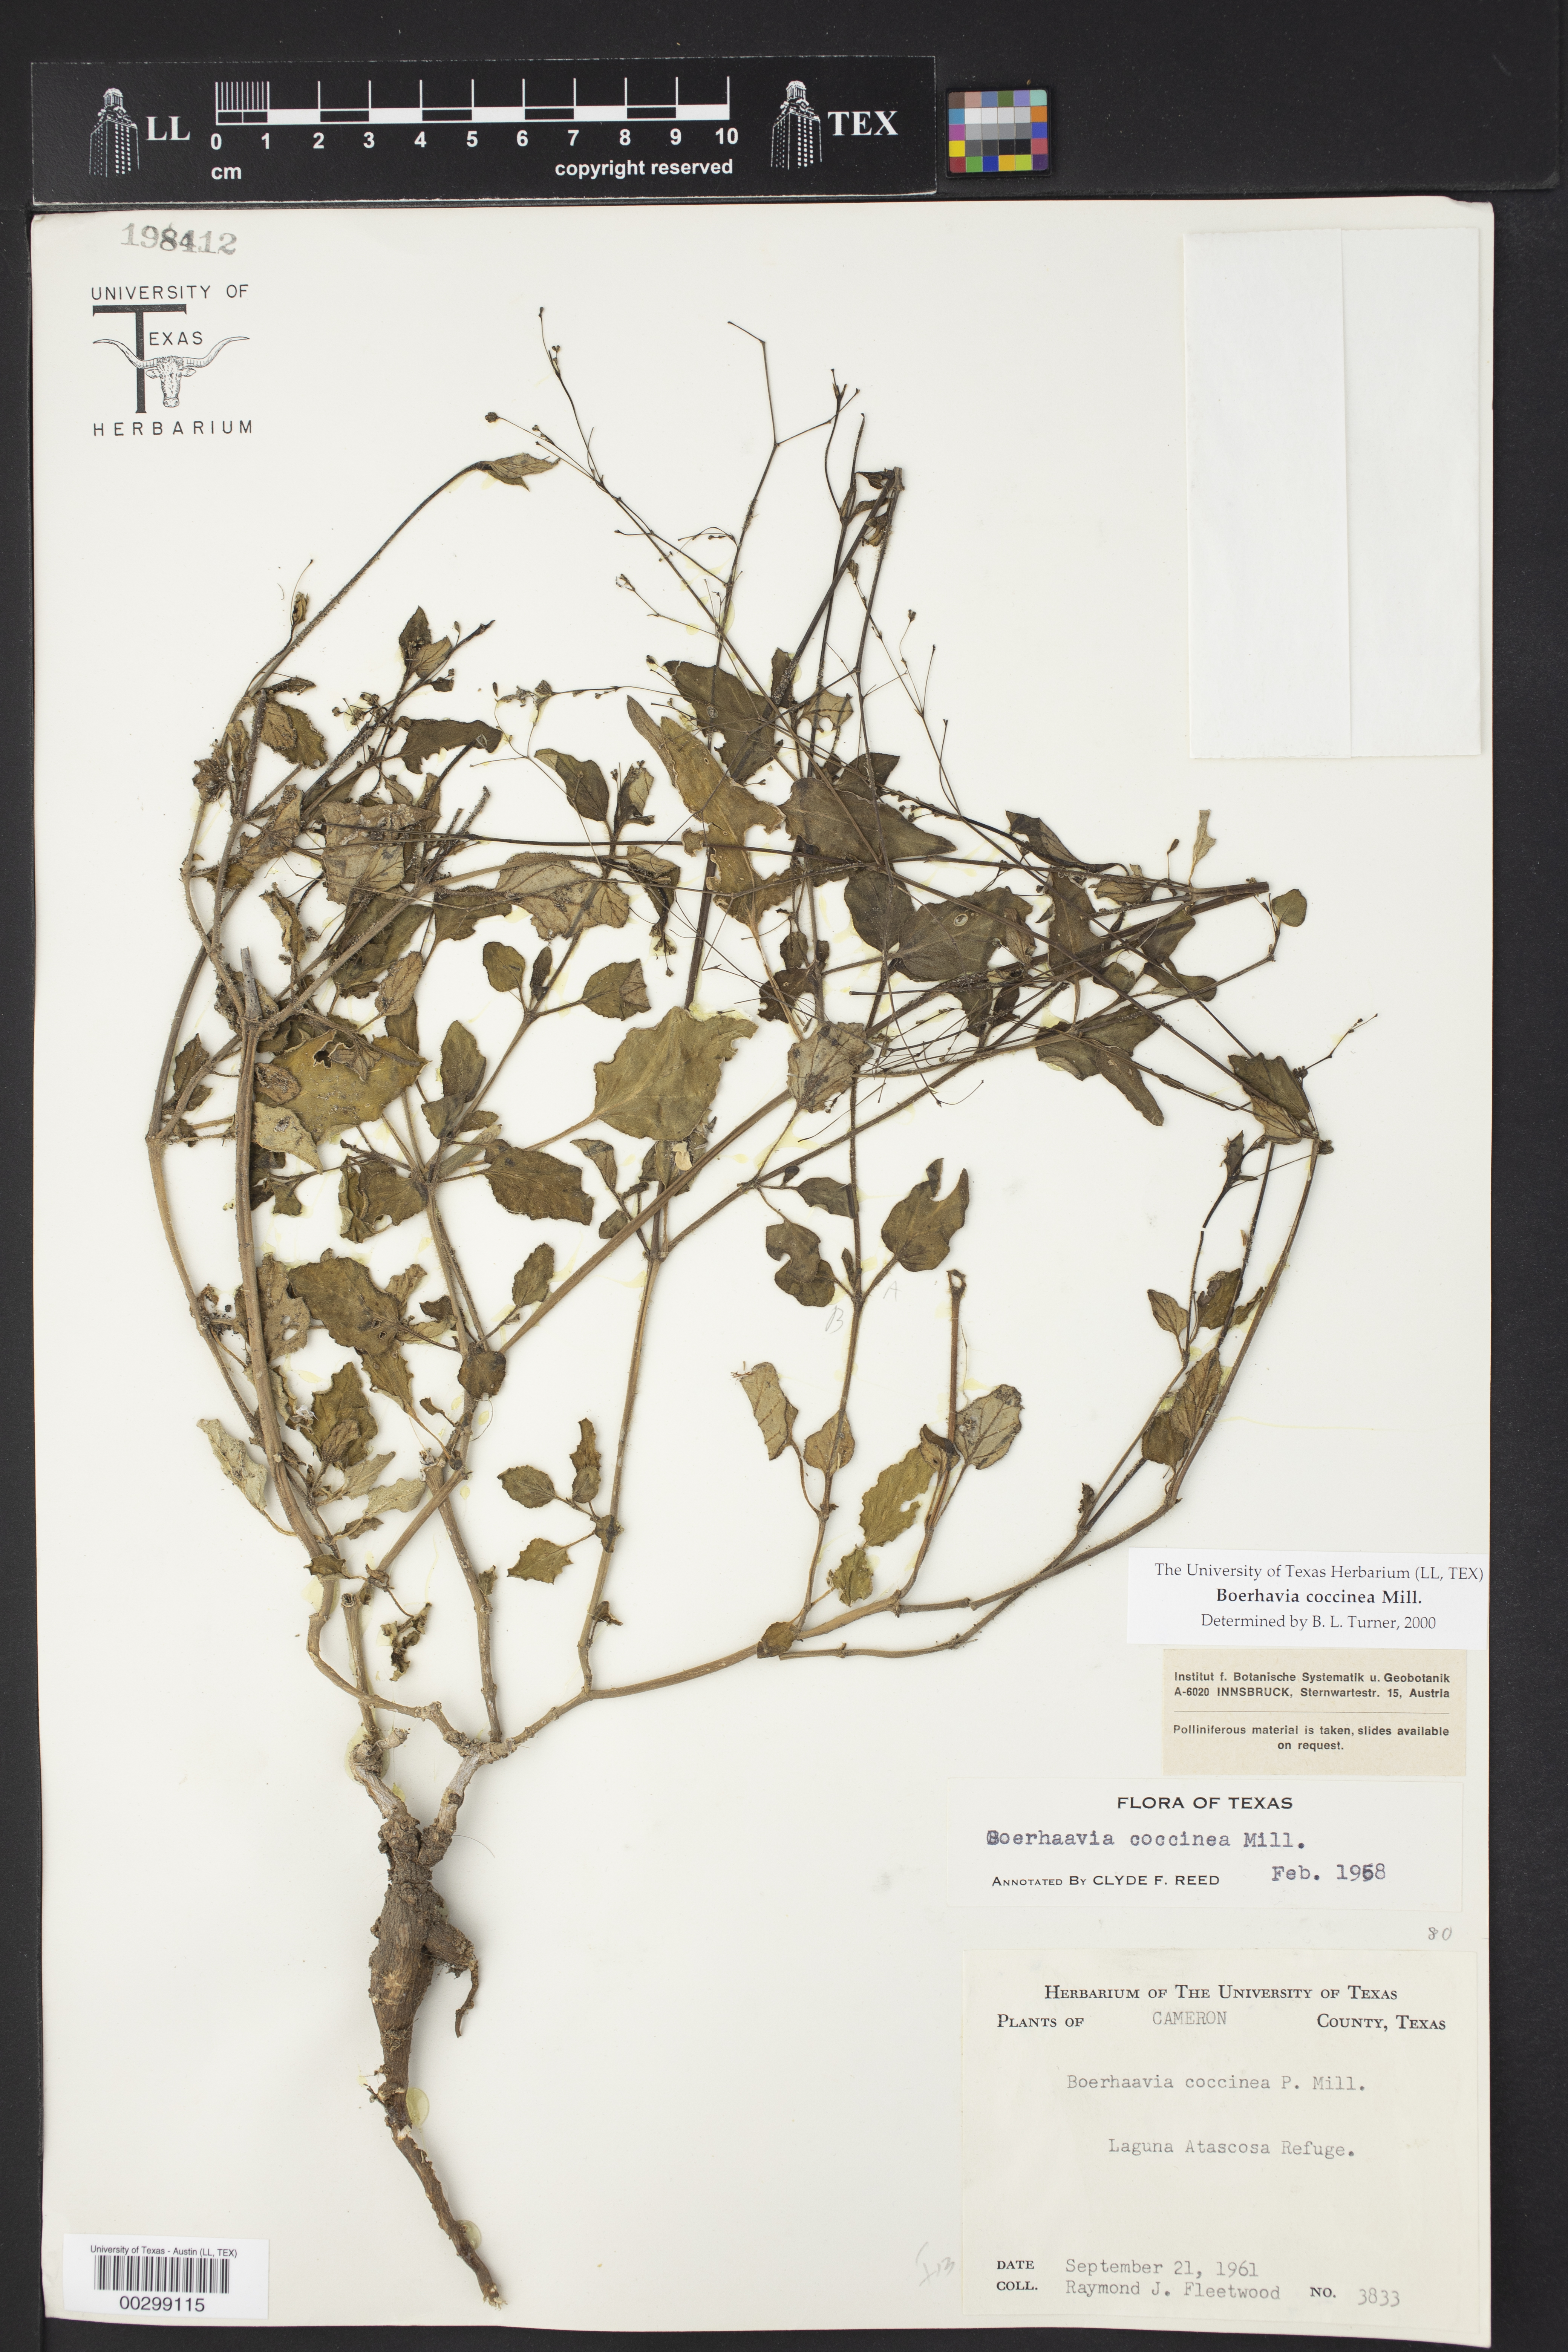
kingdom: Plantae
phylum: Tracheophyta
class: Magnoliopsida
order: Caryophyllales
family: Nyctaginaceae
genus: Boerhavia
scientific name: Boerhavia coccinea
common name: Scarlet spiderling
